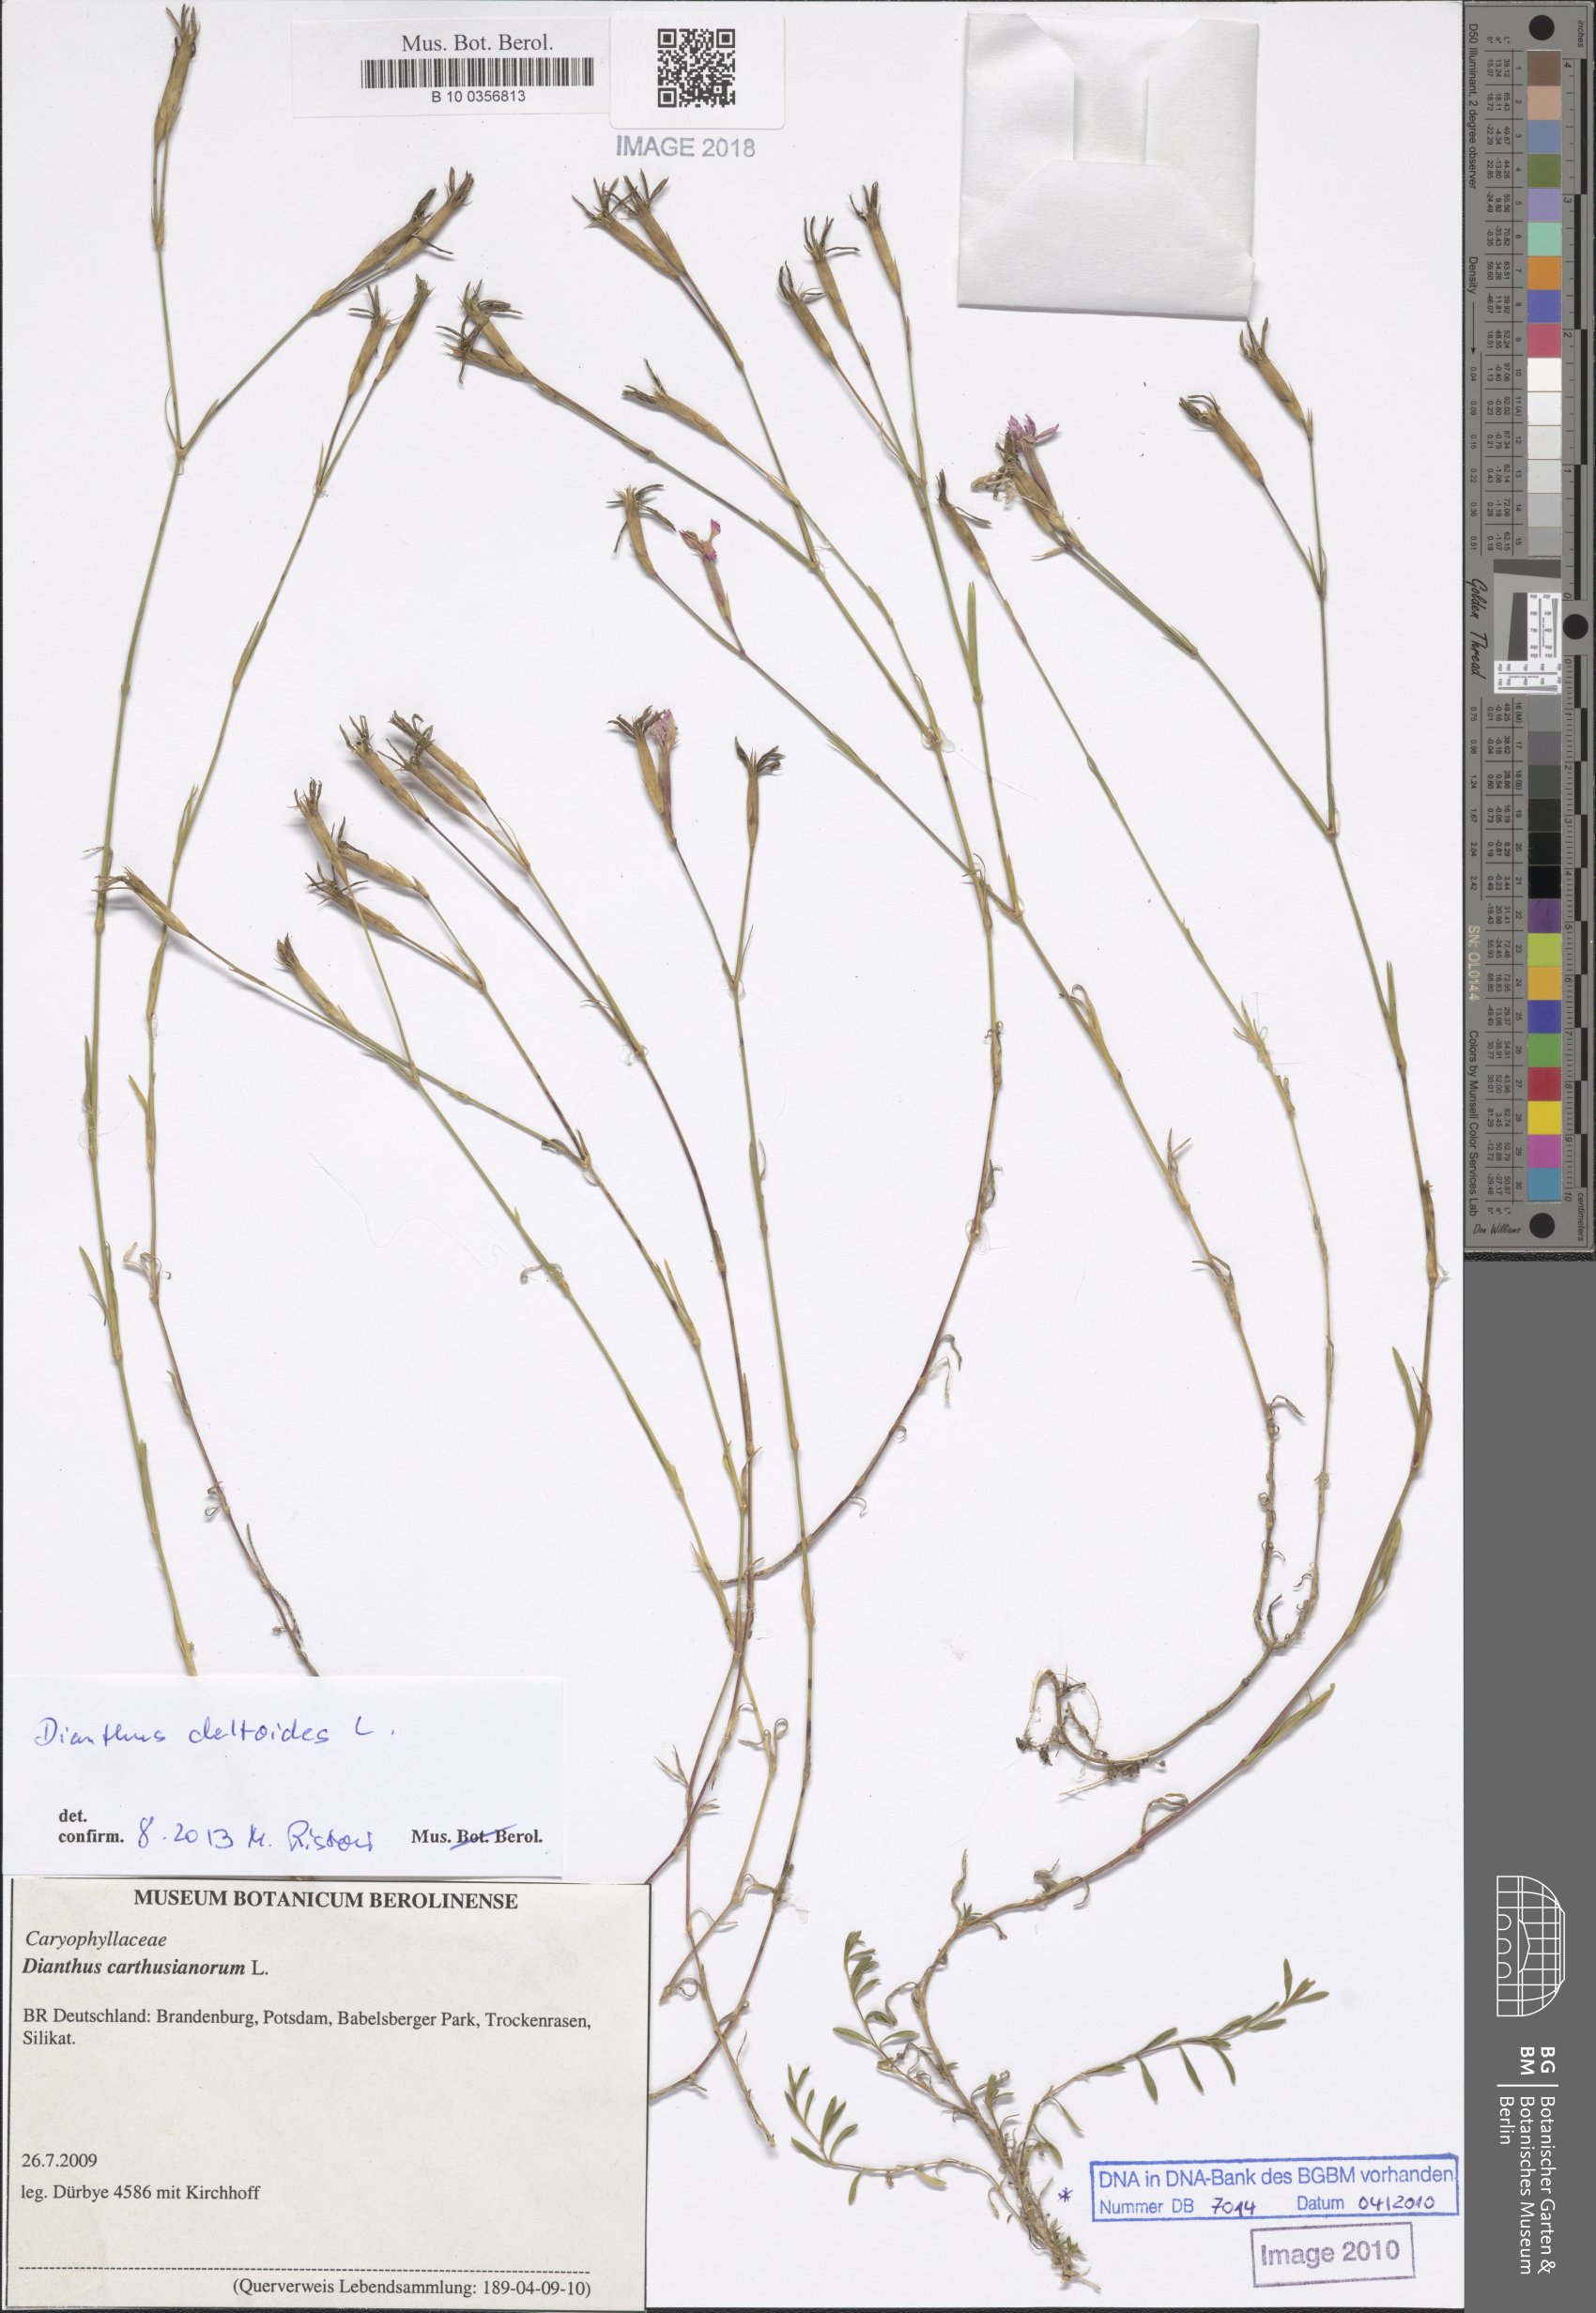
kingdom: Plantae
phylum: Tracheophyta
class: Magnoliopsida
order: Caryophyllales
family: Caryophyllaceae
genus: Dianthus
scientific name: Dianthus carthusianorum
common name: Carthusian pink
